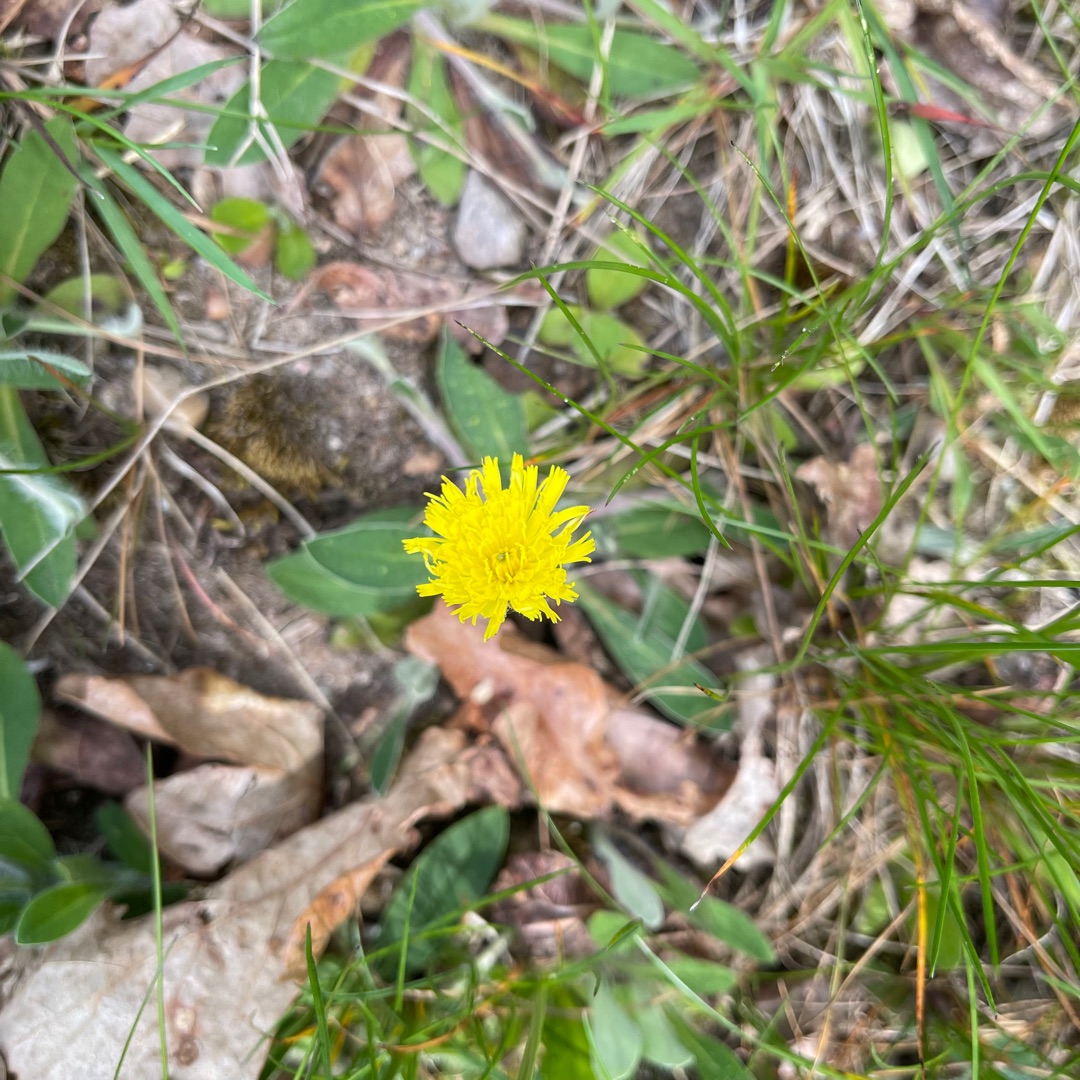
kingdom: Plantae
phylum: Tracheophyta
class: Magnoliopsida
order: Asterales
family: Asteraceae
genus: Pilosella
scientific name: Pilosella officinarum
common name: Håret høgeurt
